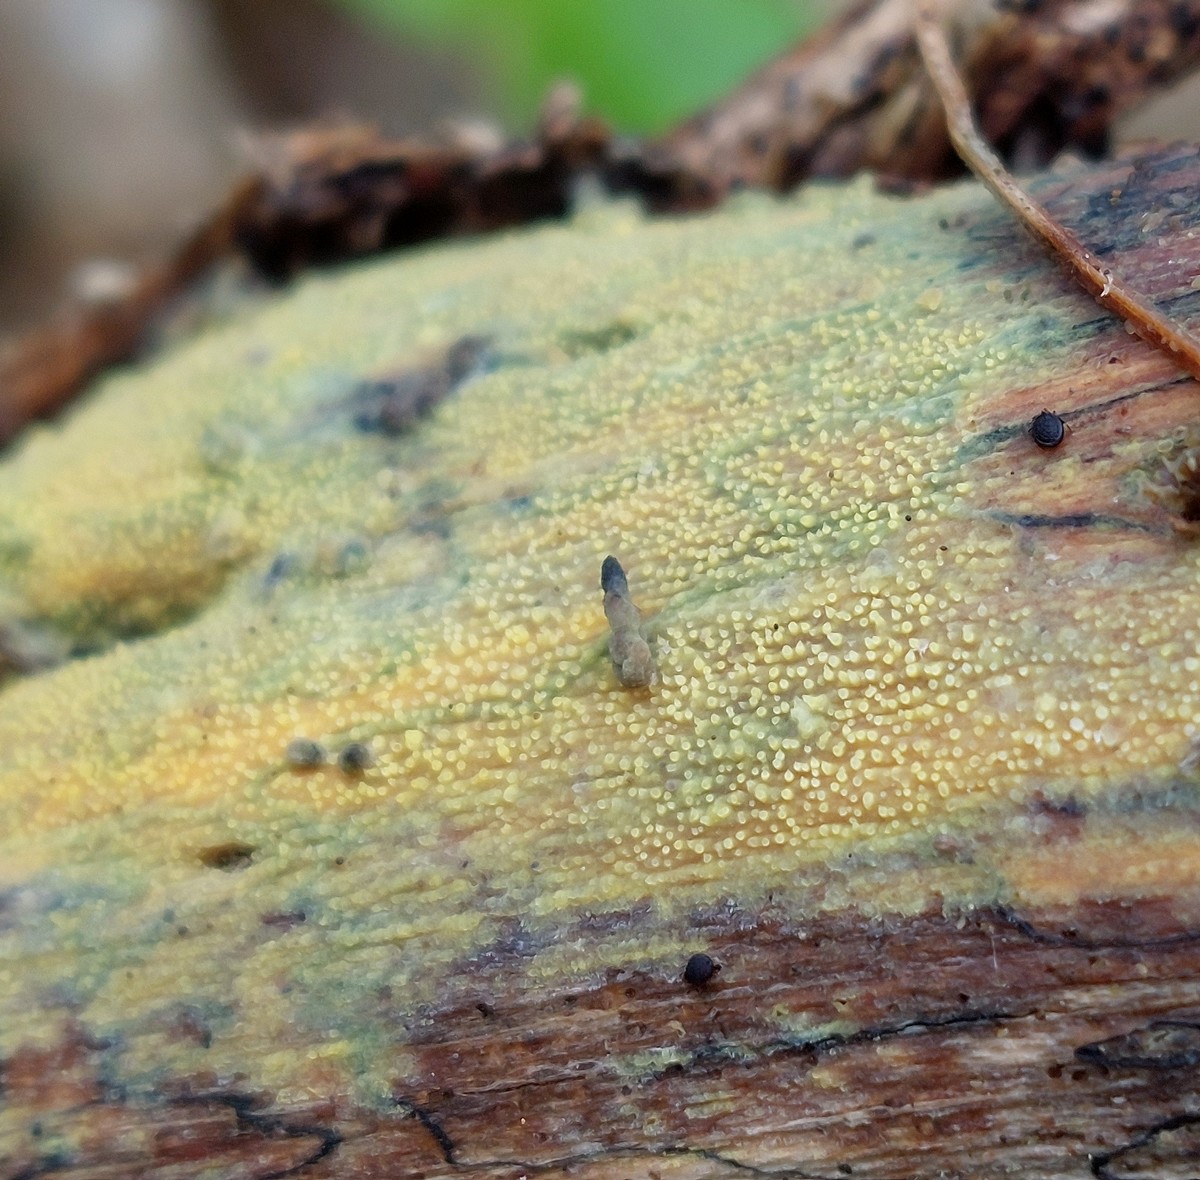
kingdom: Fungi
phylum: Basidiomycota
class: Agaricomycetes
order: Polyporales
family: Meruliaceae
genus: Mycoacia
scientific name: Mycoacia uda
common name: citrongul vokspig
